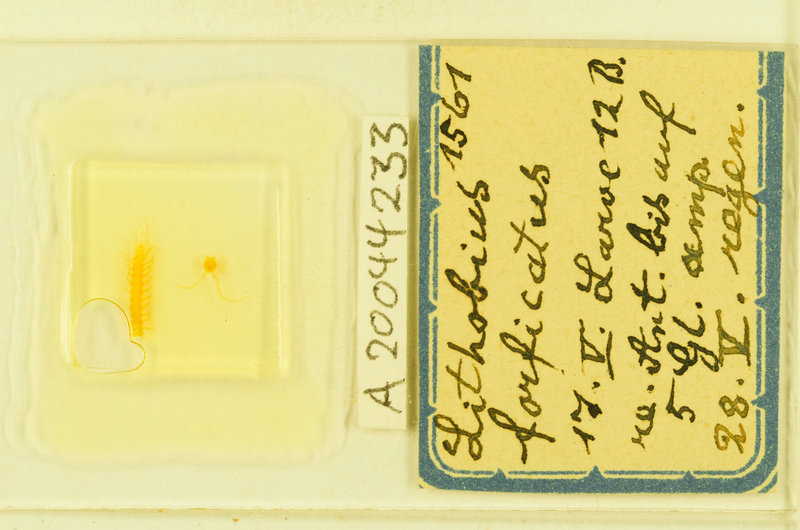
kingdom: Animalia
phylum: Arthropoda
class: Chilopoda
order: Lithobiomorpha
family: Lithobiidae
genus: Lithobius
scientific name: Lithobius forficatus
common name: Centipede
